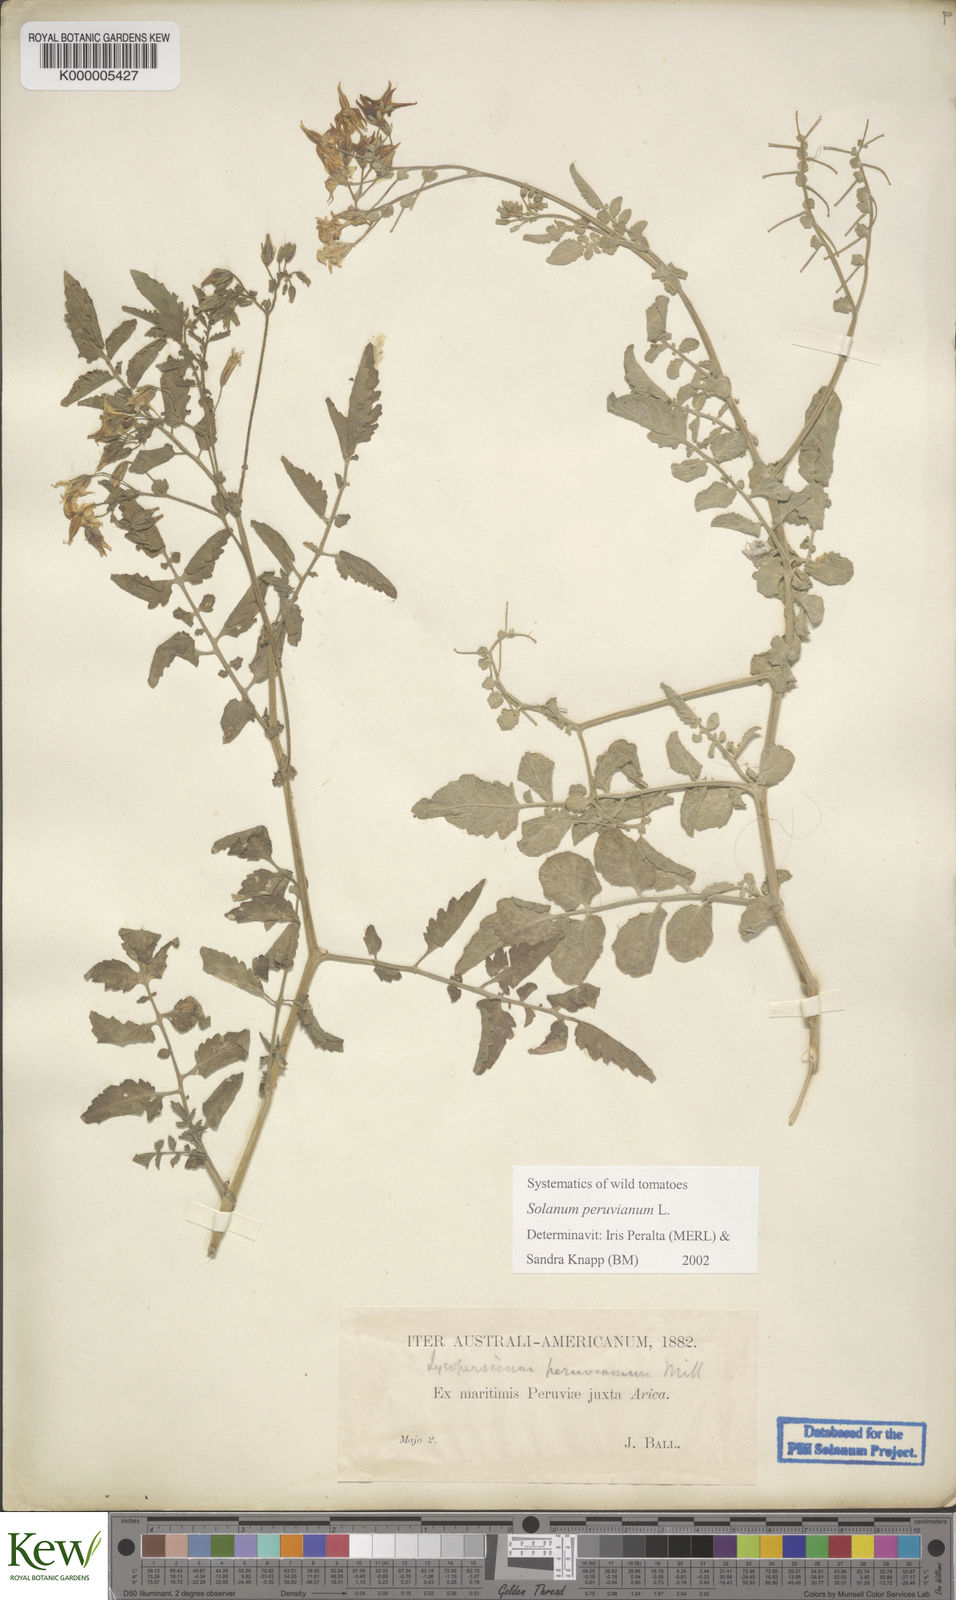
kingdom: Plantae
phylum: Tracheophyta
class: Magnoliopsida
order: Solanales
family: Solanaceae
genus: Solanum
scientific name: Solanum peruvianum
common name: Peruvian nightshade
